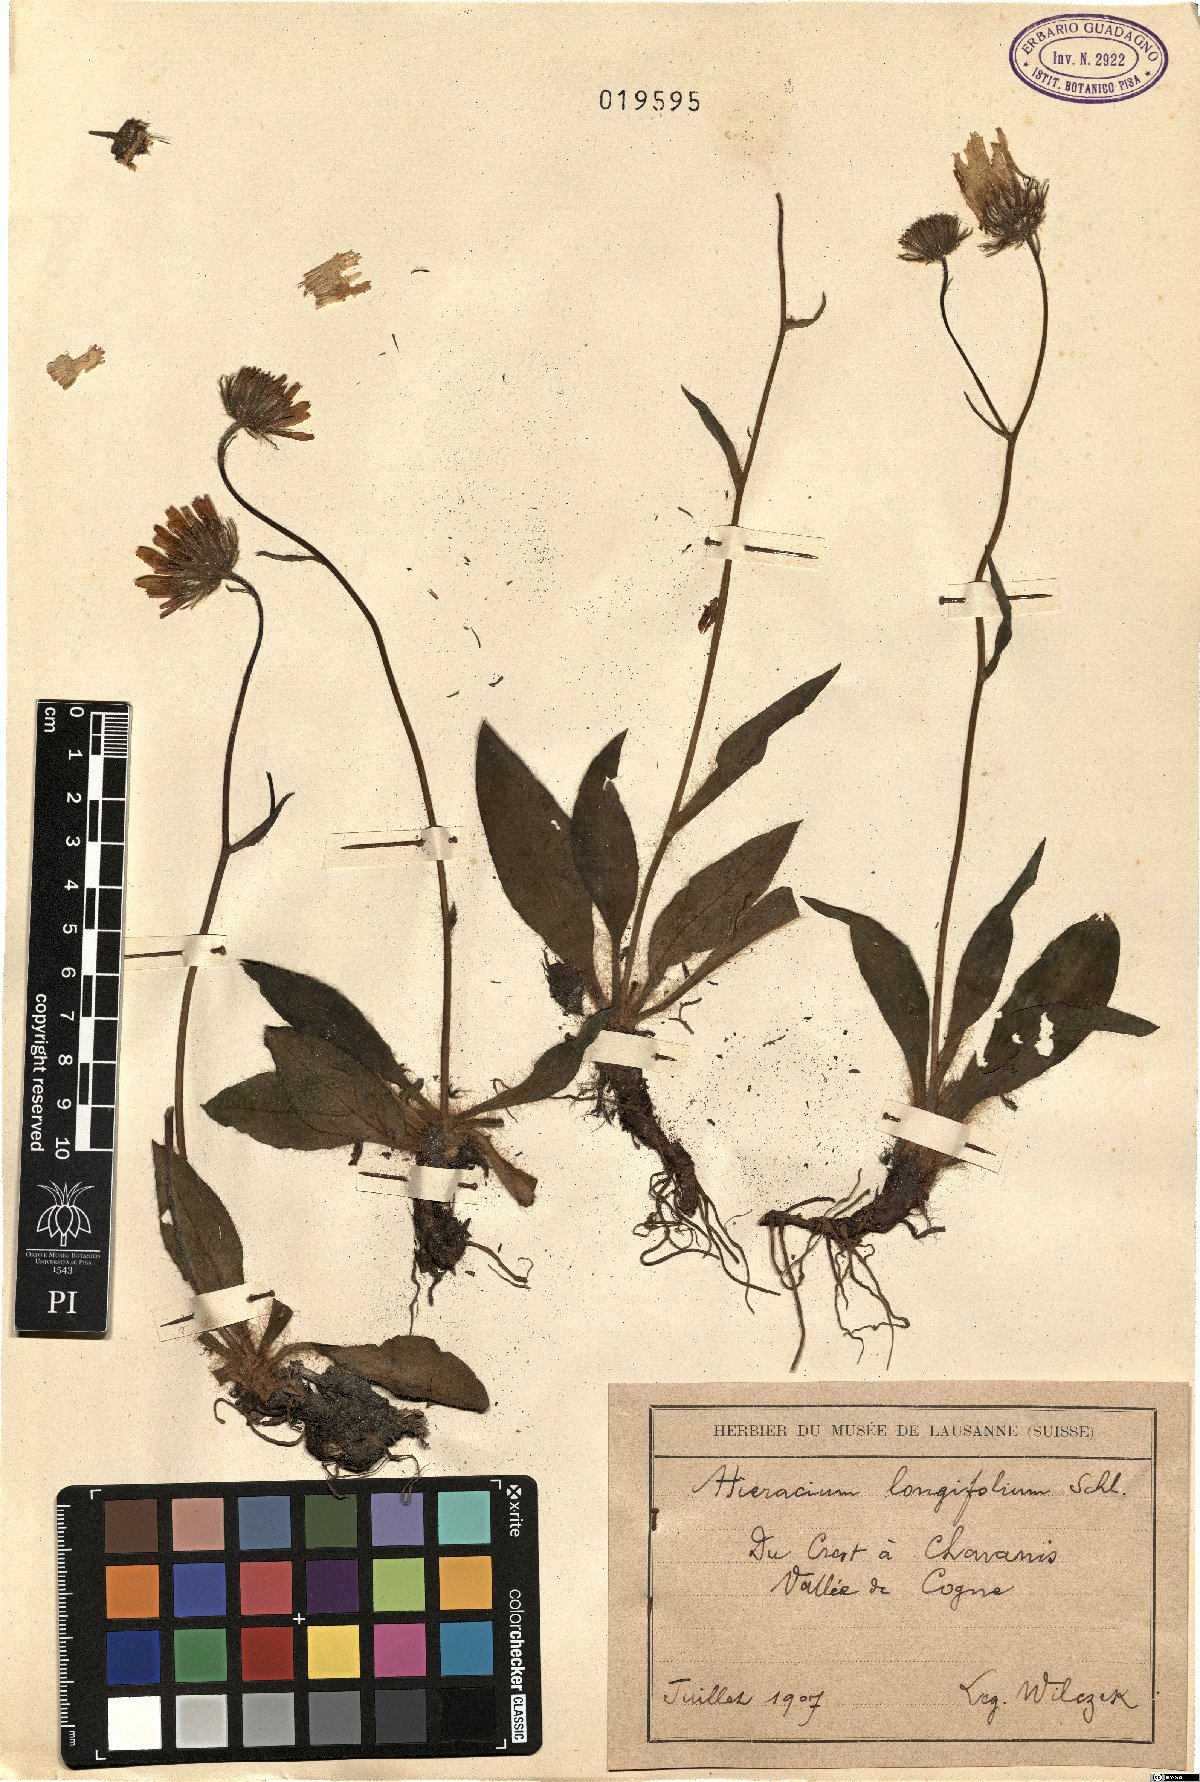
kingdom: Plantae
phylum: Tracheophyta
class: Magnoliopsida
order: Asterales
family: Asteraceae
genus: Hieracium
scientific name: Hieracium longifolium
